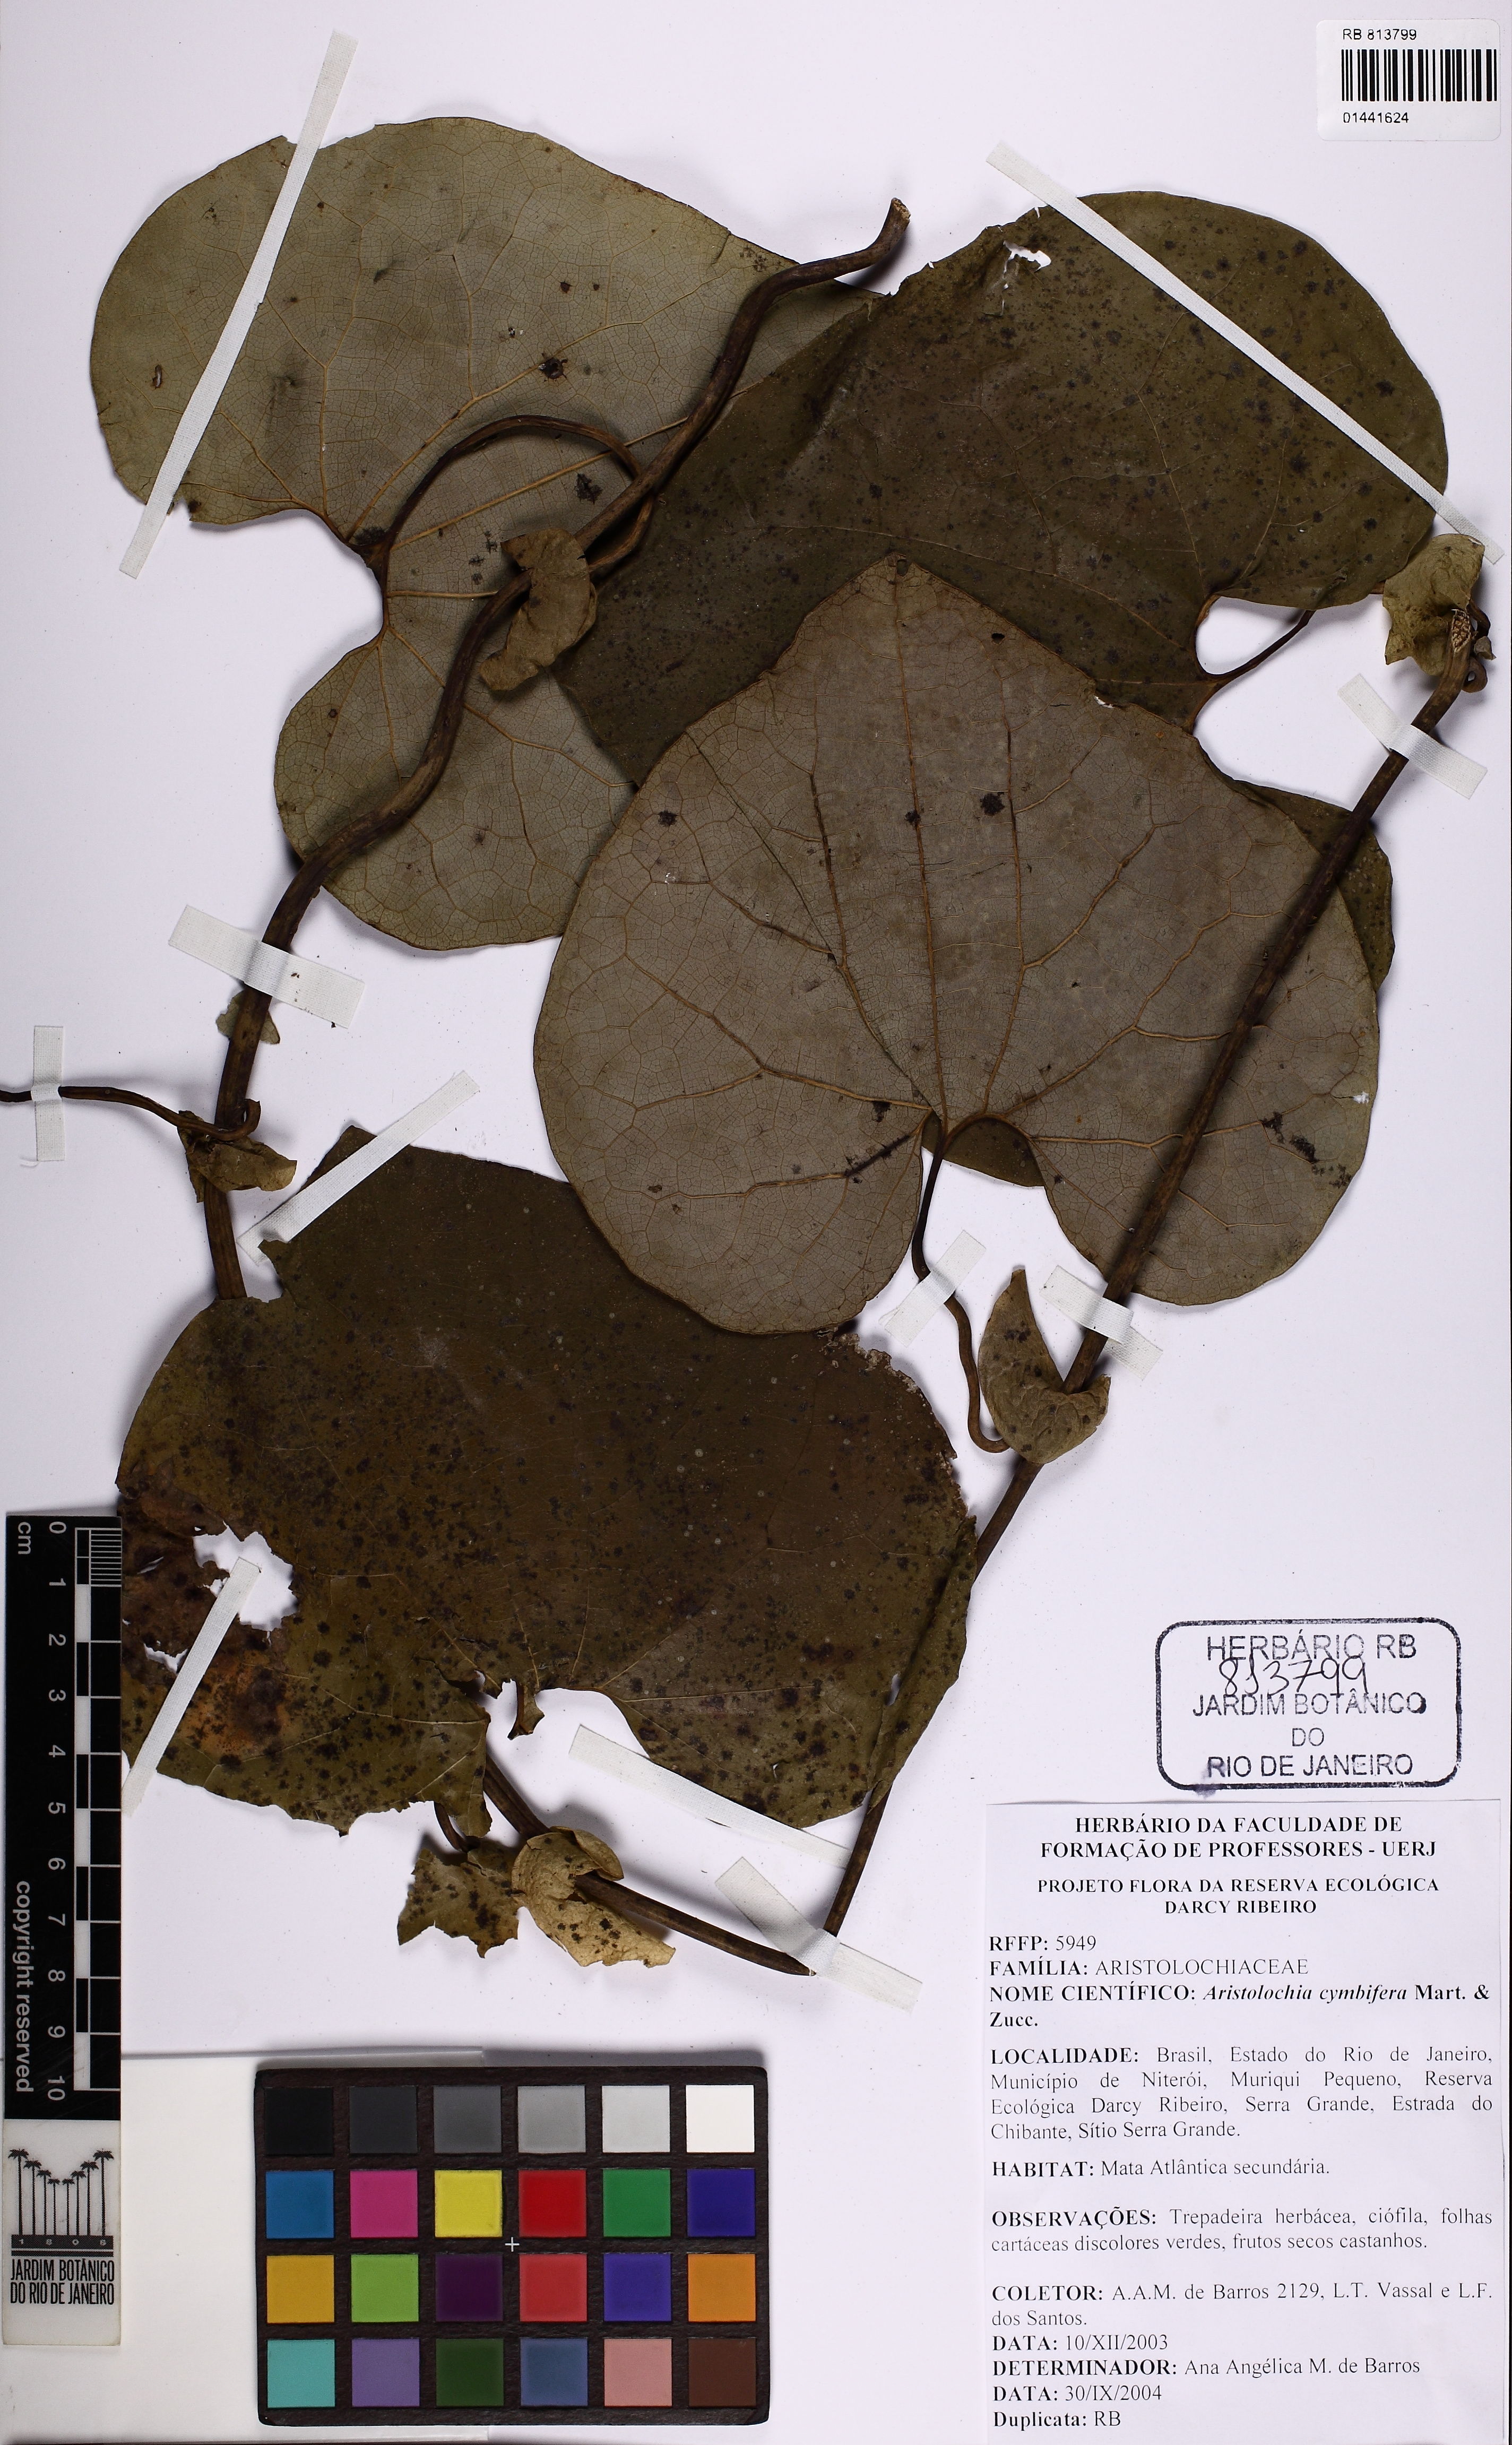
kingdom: Plantae
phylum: Tracheophyta
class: Magnoliopsida
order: Piperales
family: Aristolochiaceae
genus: Aristolochia
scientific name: Aristolochia cymbifera
